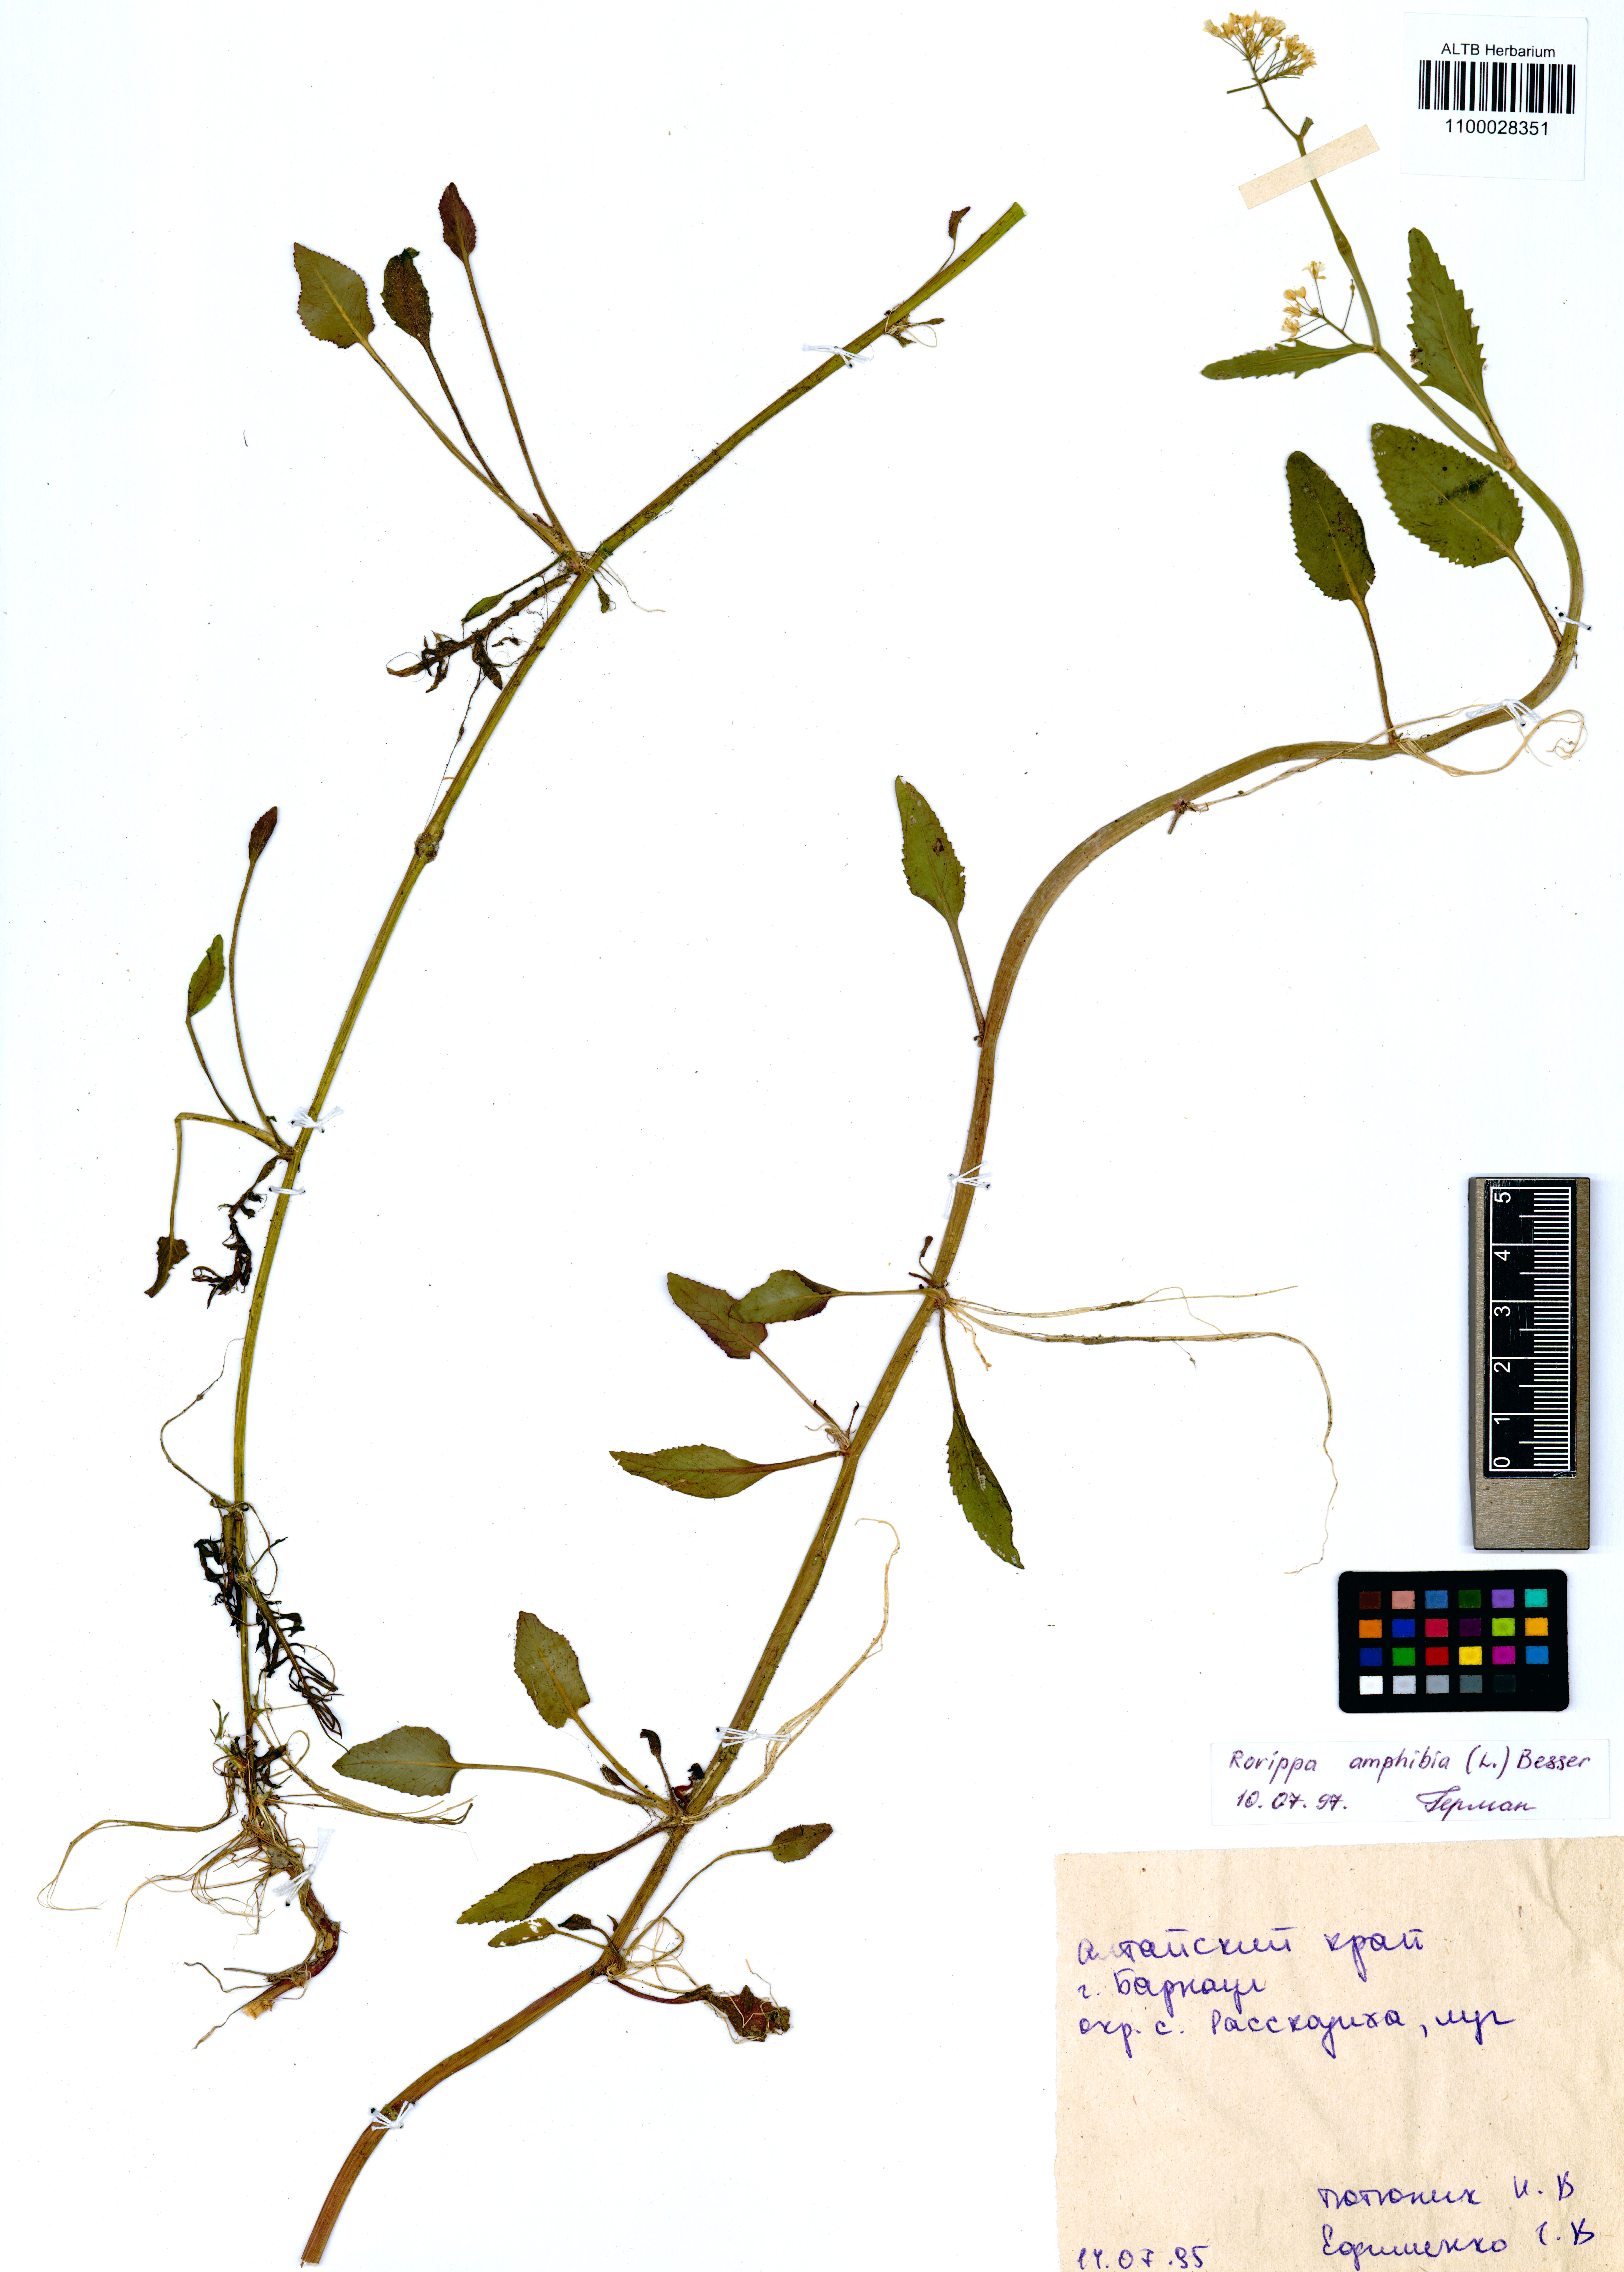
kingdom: Plantae
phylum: Tracheophyta
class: Magnoliopsida
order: Brassicales
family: Brassicaceae
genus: Rorippa
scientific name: Rorippa amphibia
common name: Great yellow-cress
